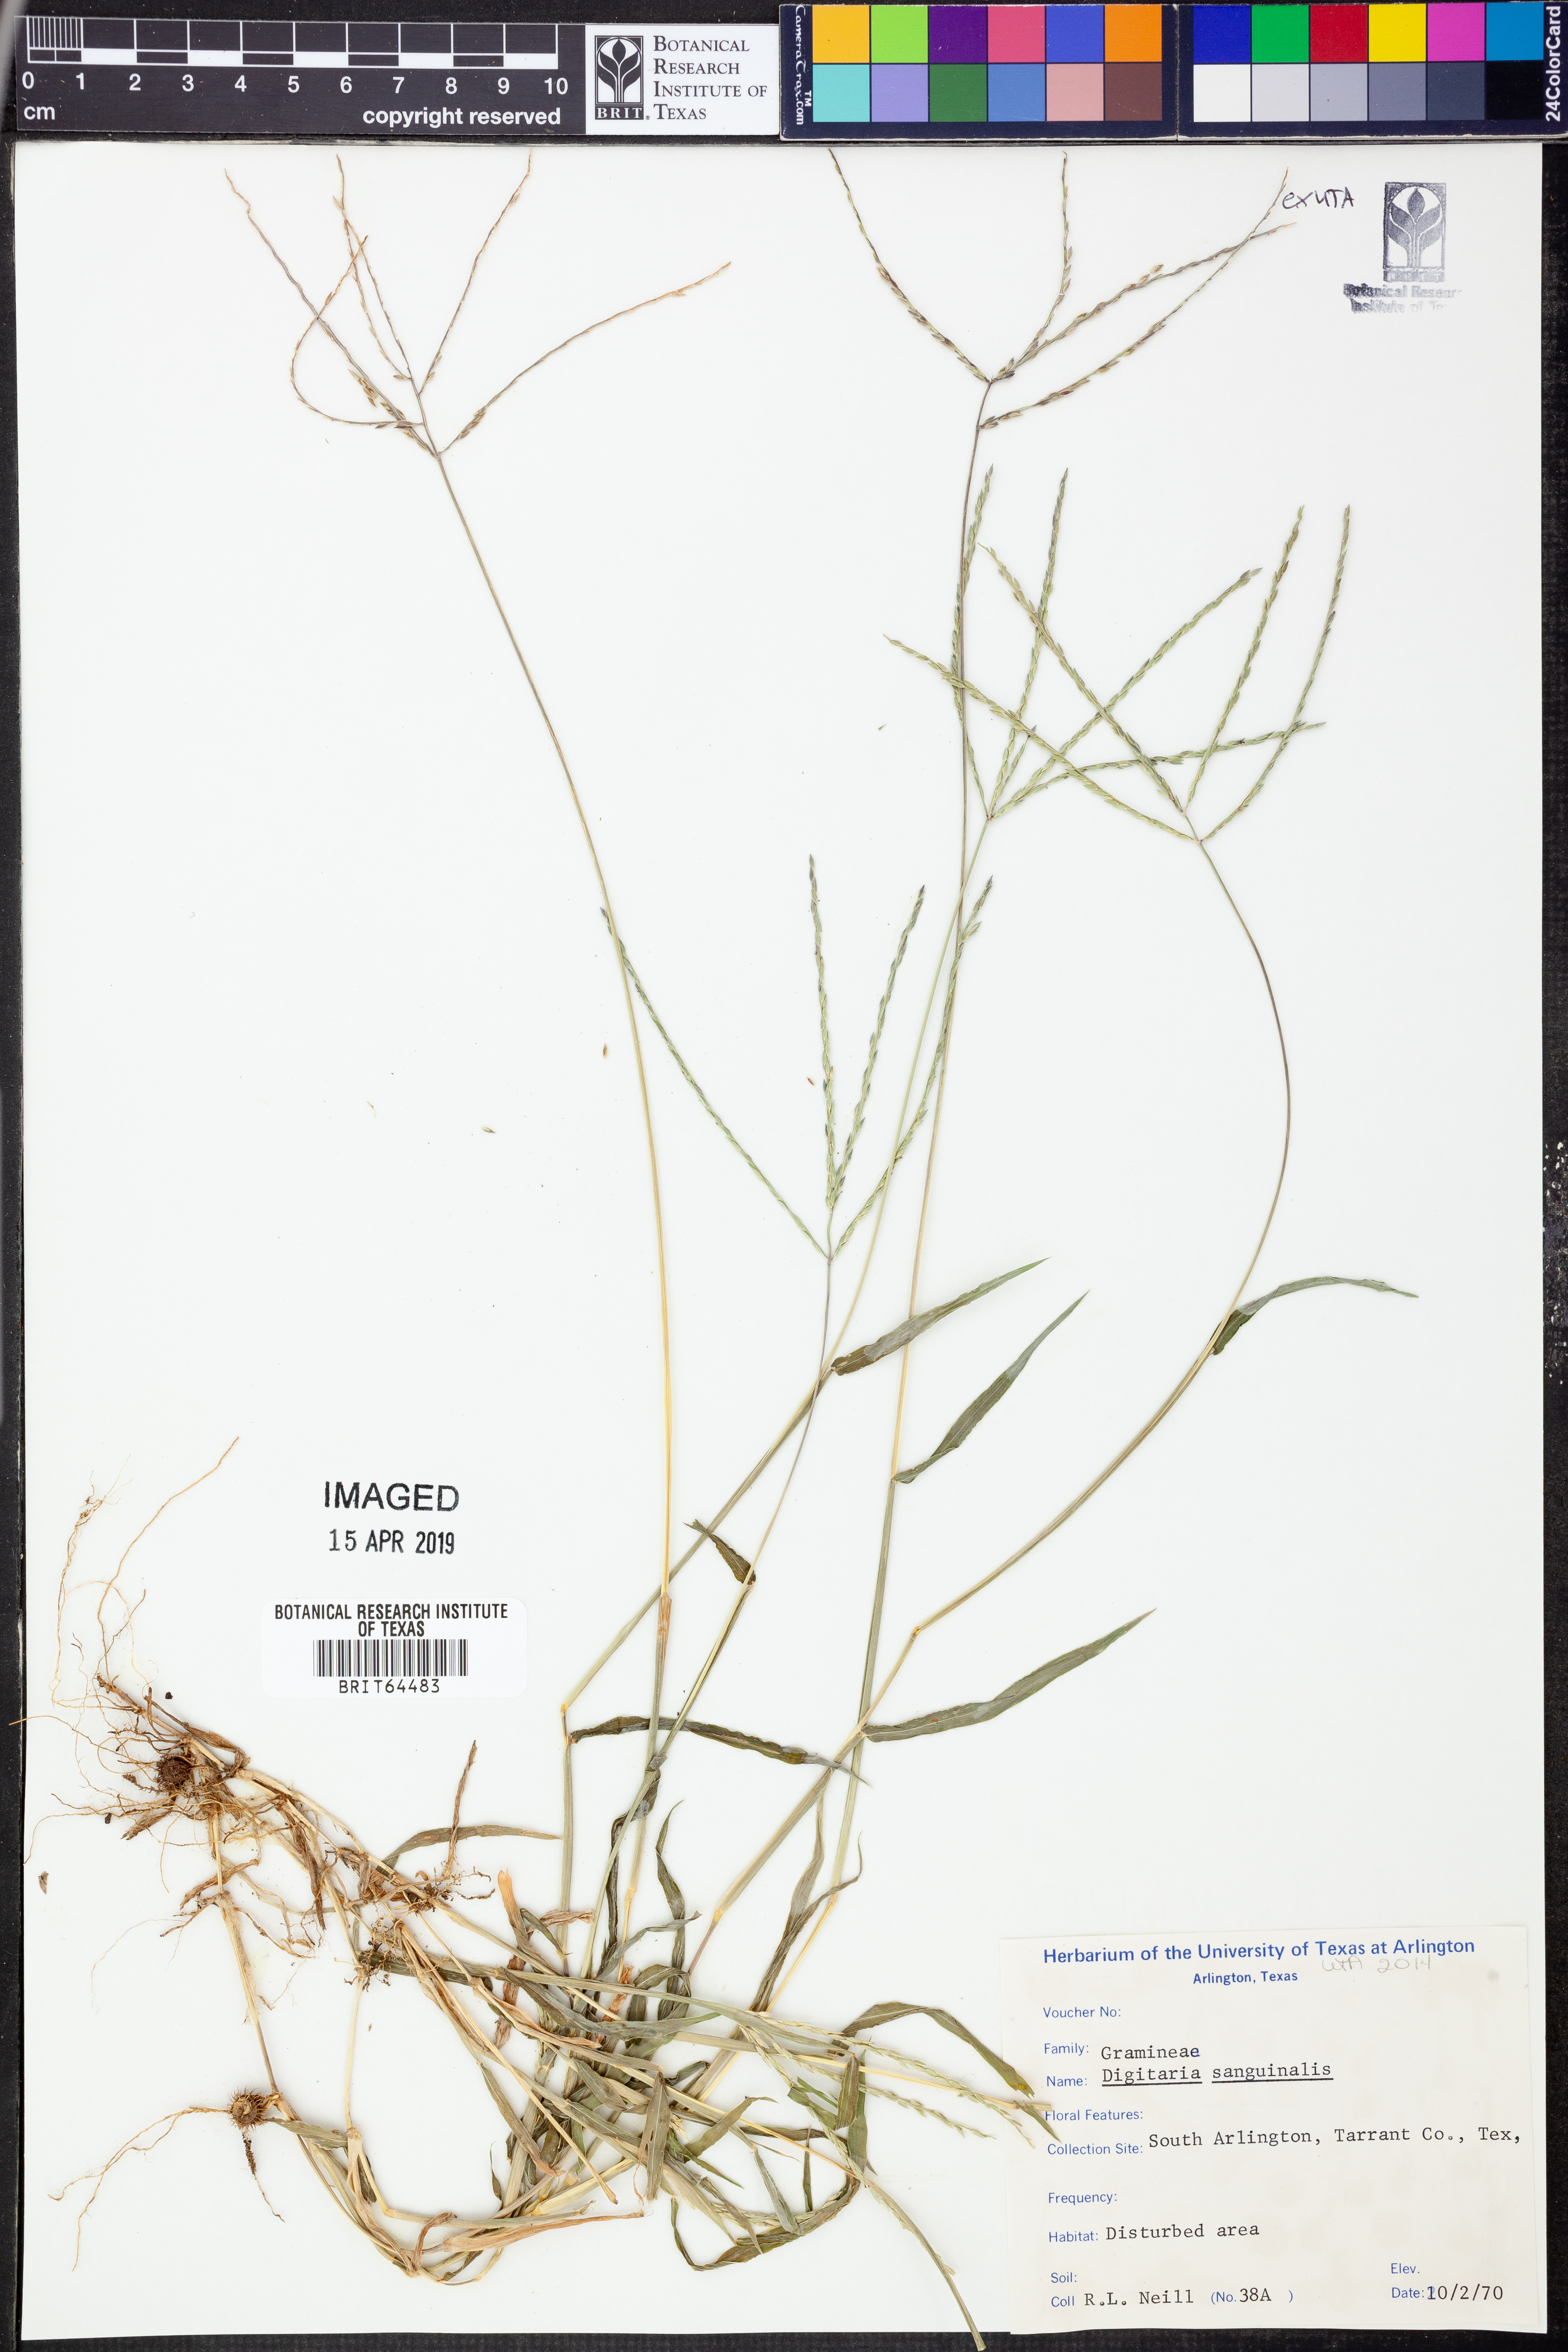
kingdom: Plantae
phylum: Tracheophyta
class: Liliopsida
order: Poales
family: Poaceae
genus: Digitaria
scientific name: Digitaria sanguinalis
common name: Hairy crabgrass
